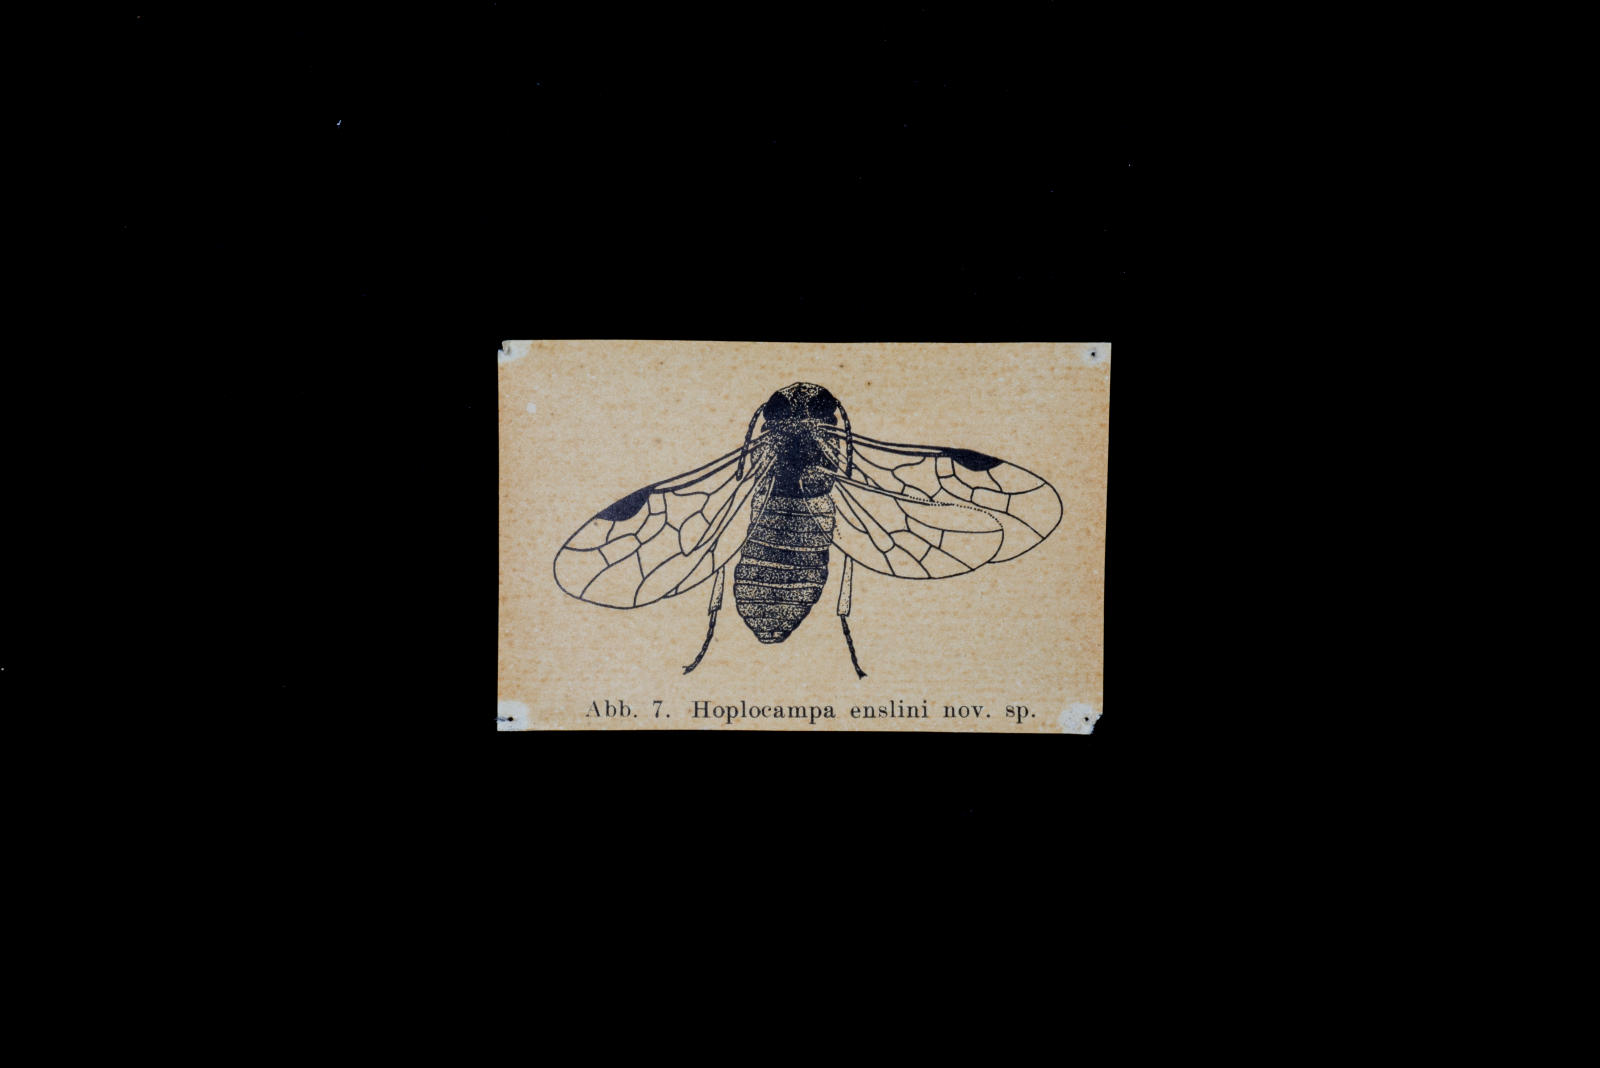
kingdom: Animalia
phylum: Arthropoda
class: Insecta
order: Hymenoptera
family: Tenthredinidae
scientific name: Tenthredinidae
